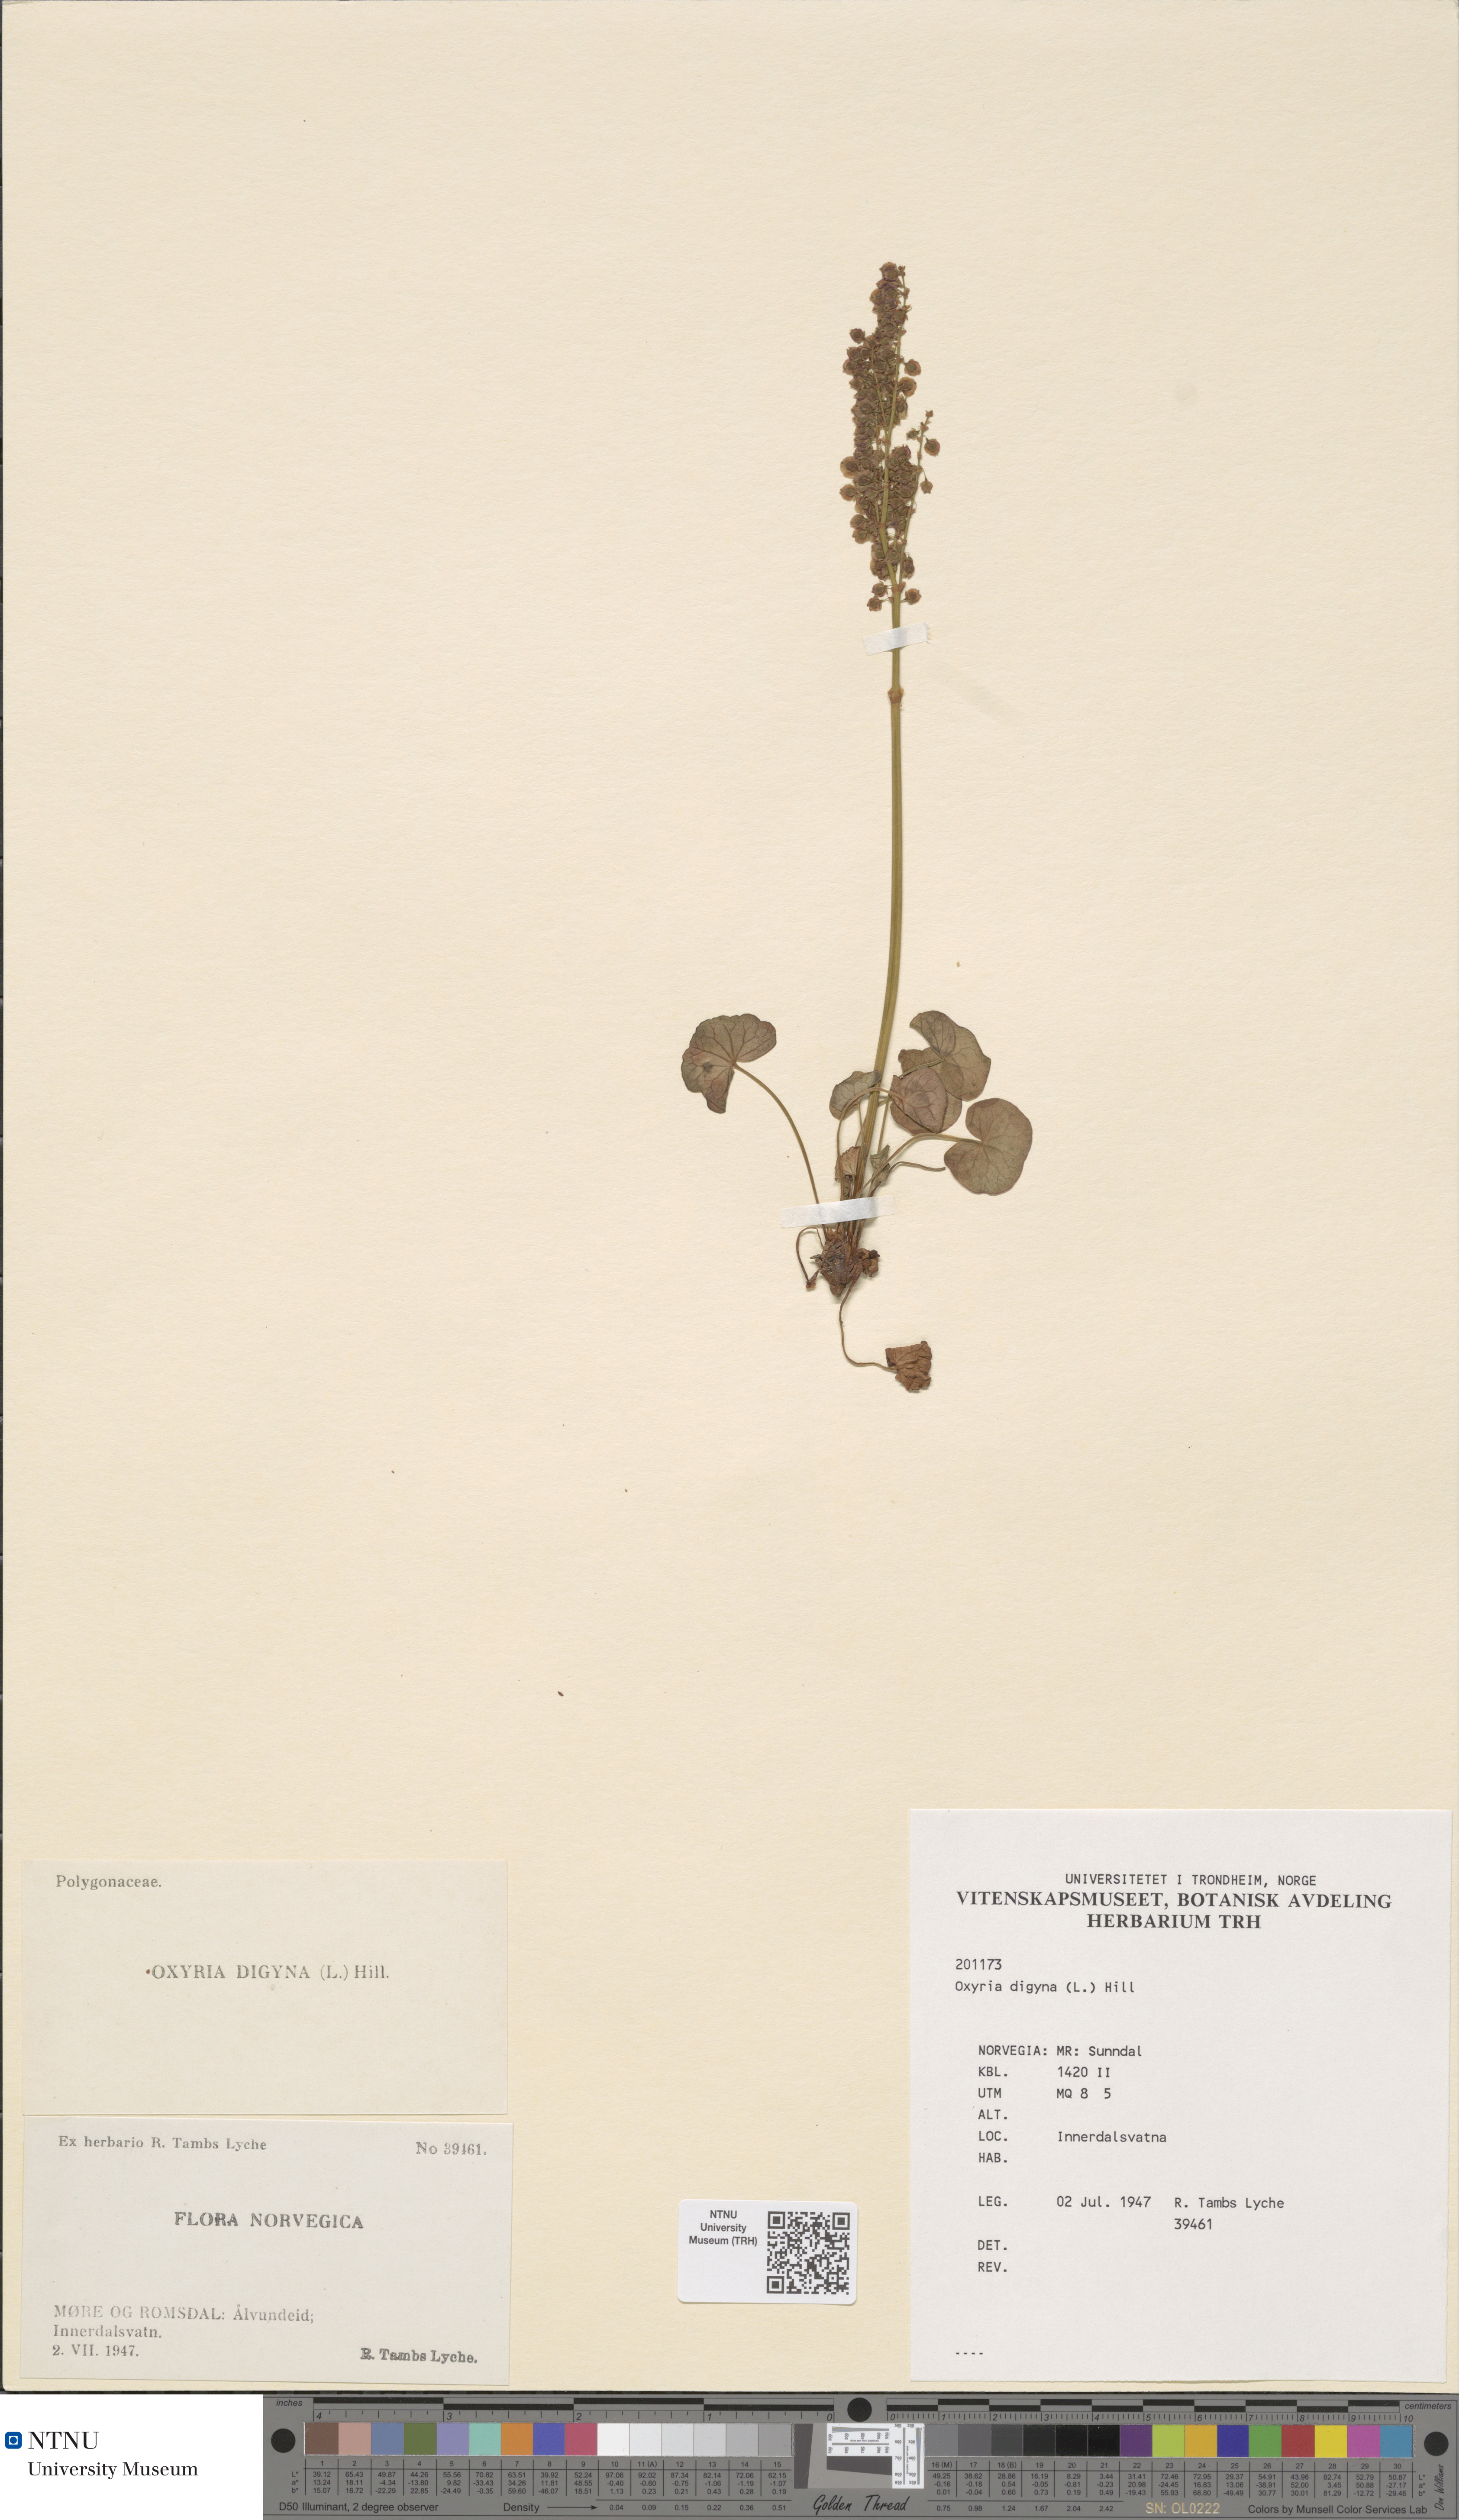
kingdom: Plantae
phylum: Tracheophyta
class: Magnoliopsida
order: Caryophyllales
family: Polygonaceae
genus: Oxyria
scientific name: Oxyria digyna
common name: Alpine mountain-sorrel
